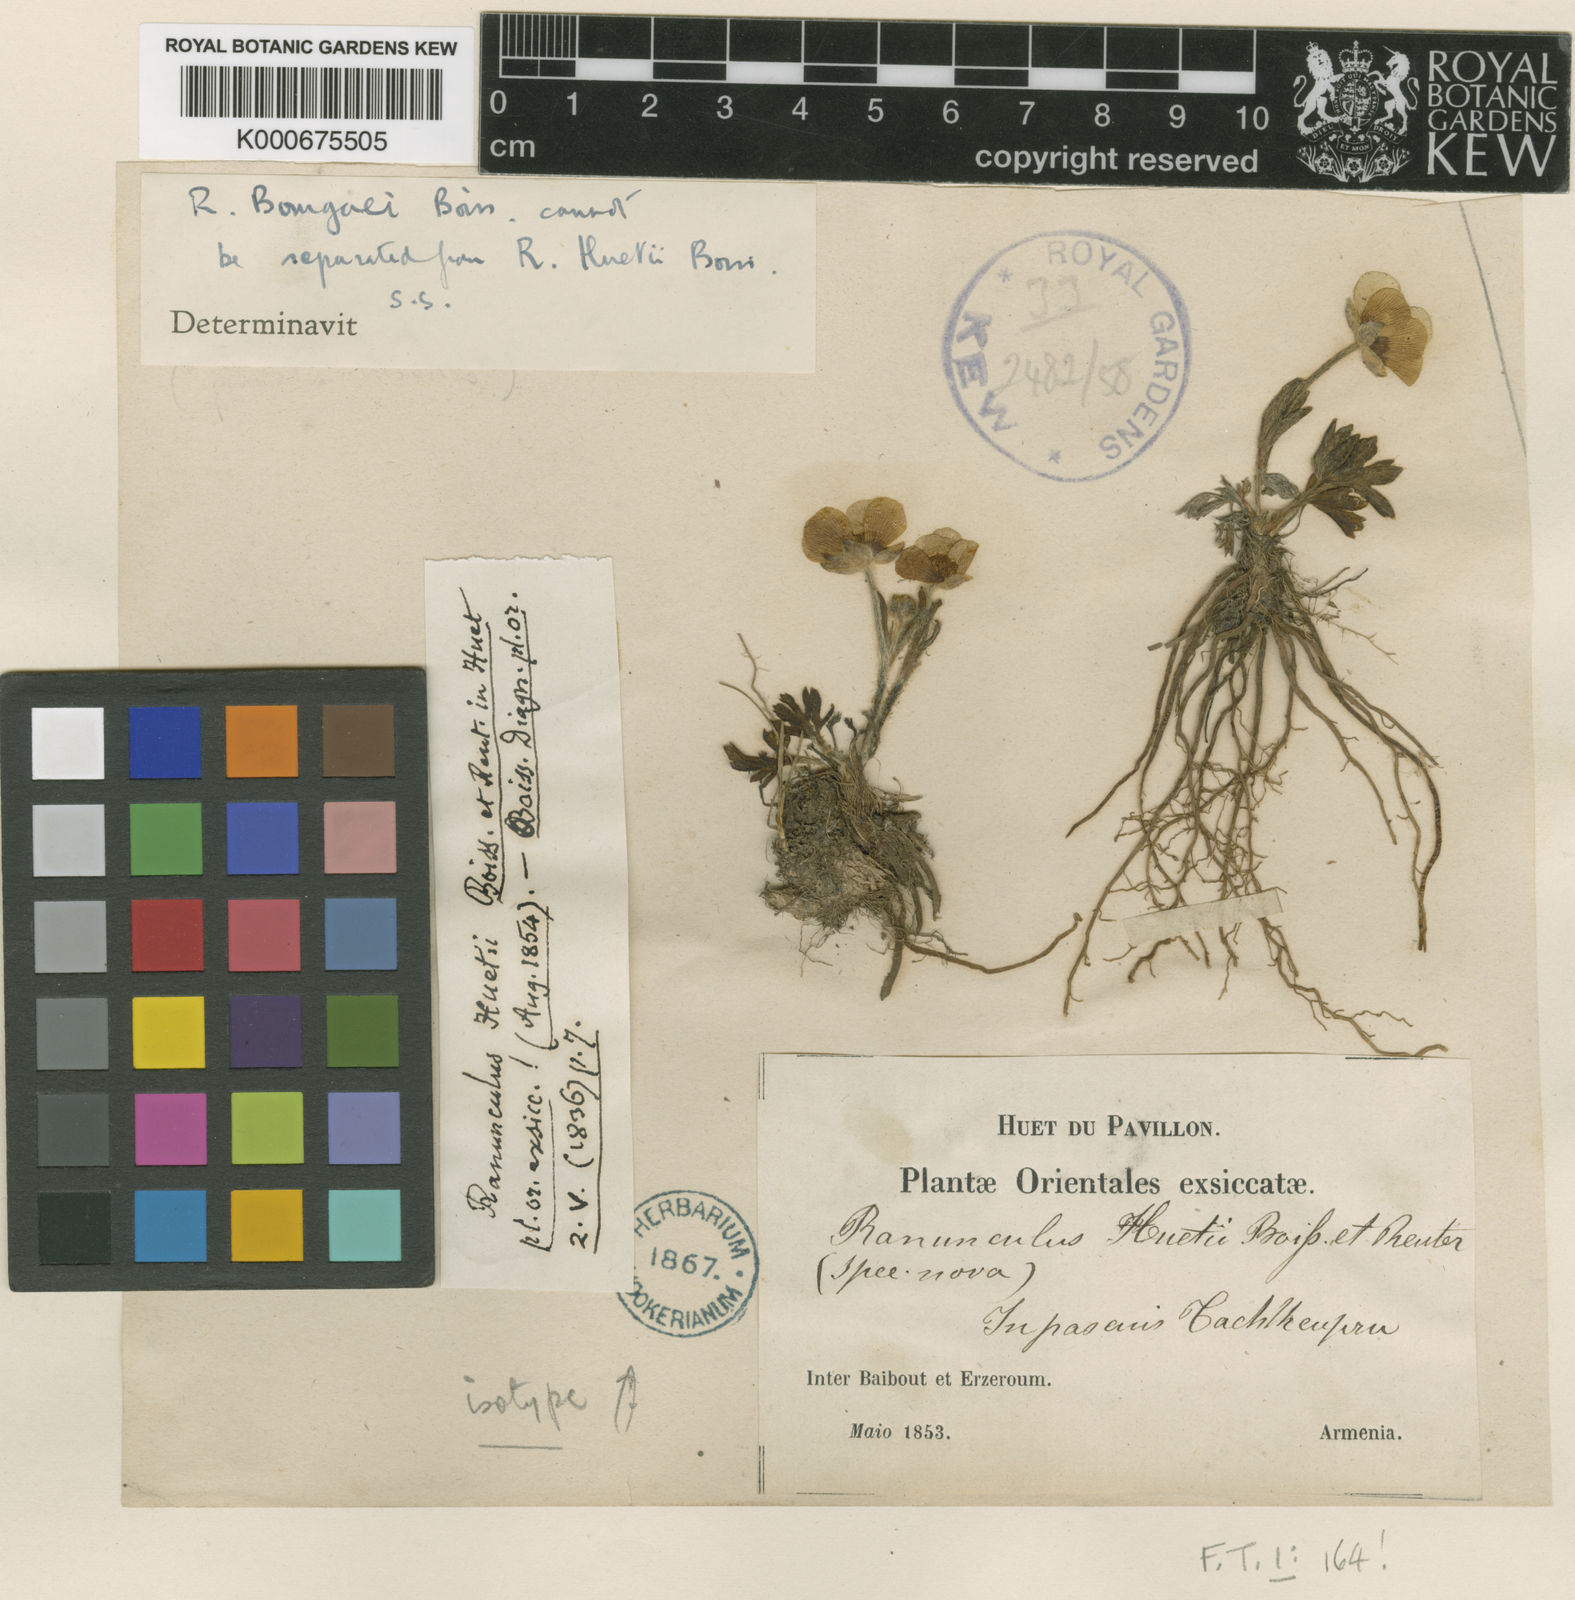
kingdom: Plantae
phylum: Tracheophyta
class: Magnoliopsida
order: Ranunculales
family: Ranunculaceae
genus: Ranunculus
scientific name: Ranunculus dissectus
